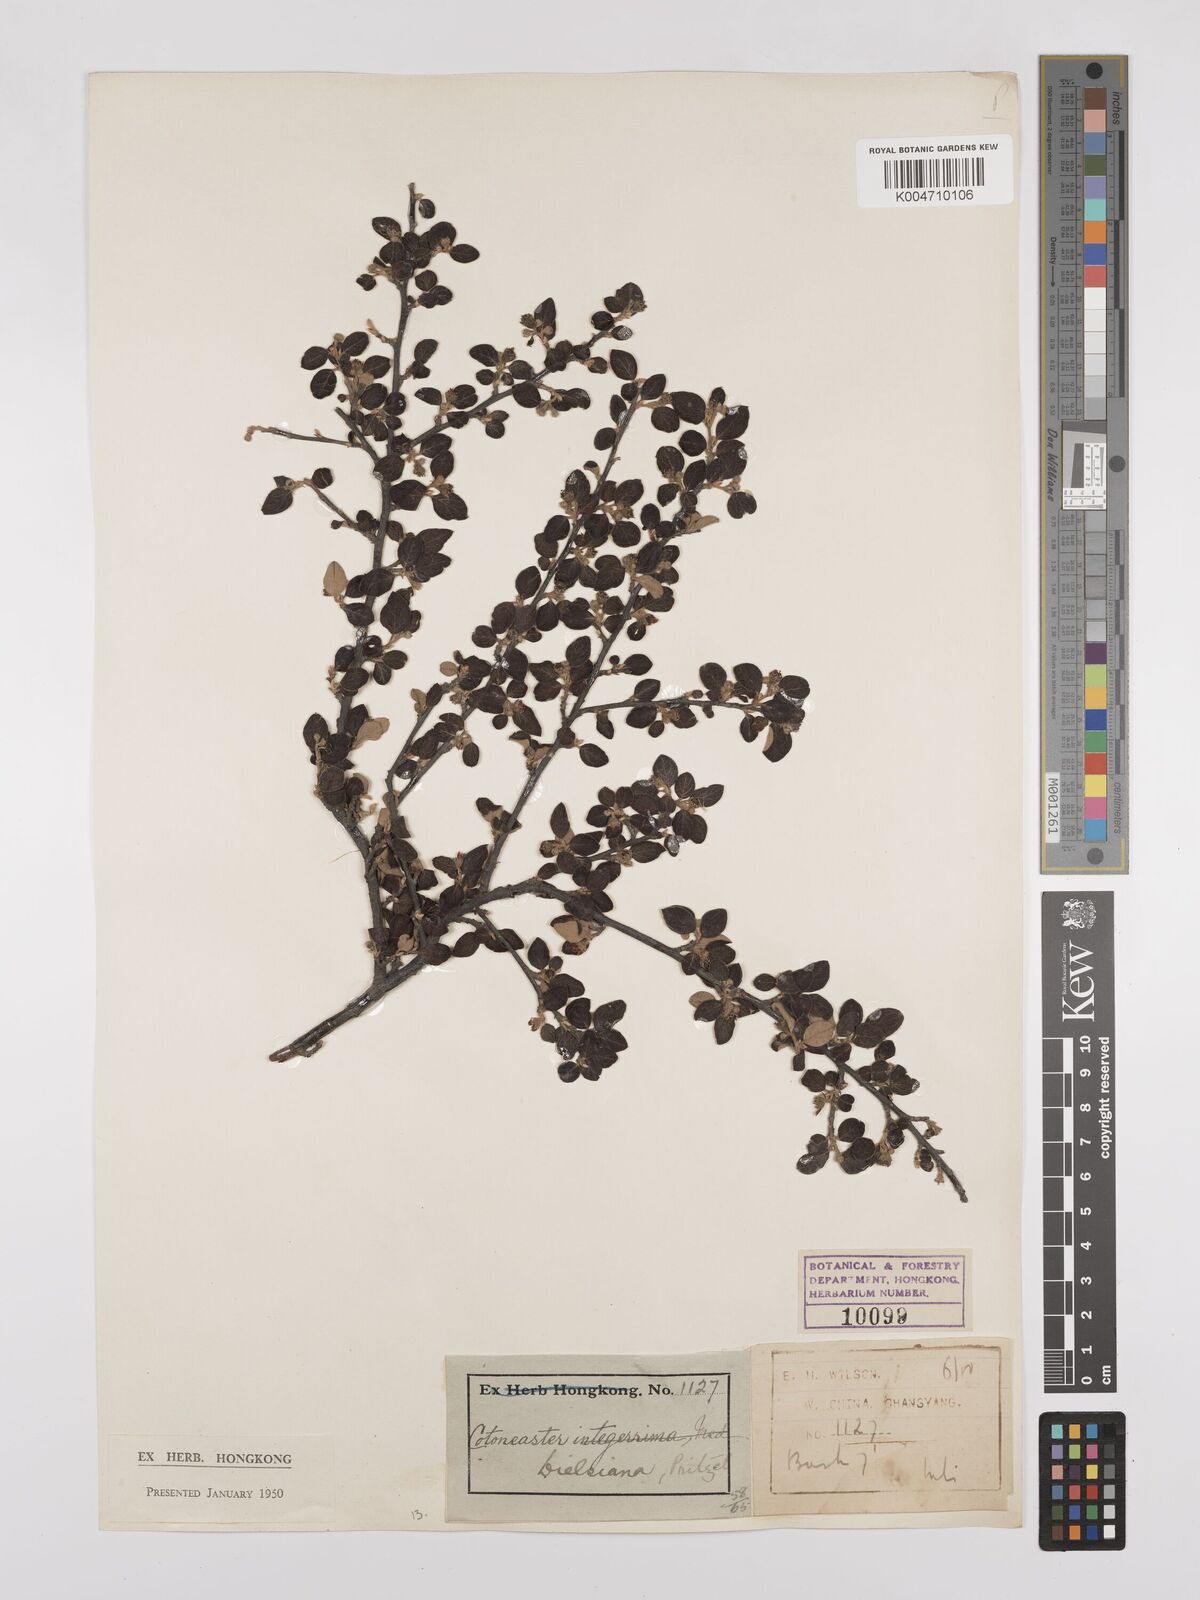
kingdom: Plantae
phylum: Tracheophyta
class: Magnoliopsida
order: Rosales
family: Rosaceae
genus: Cotoneaster
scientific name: Cotoneaster dielsianus
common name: Diels's cotoneaster
